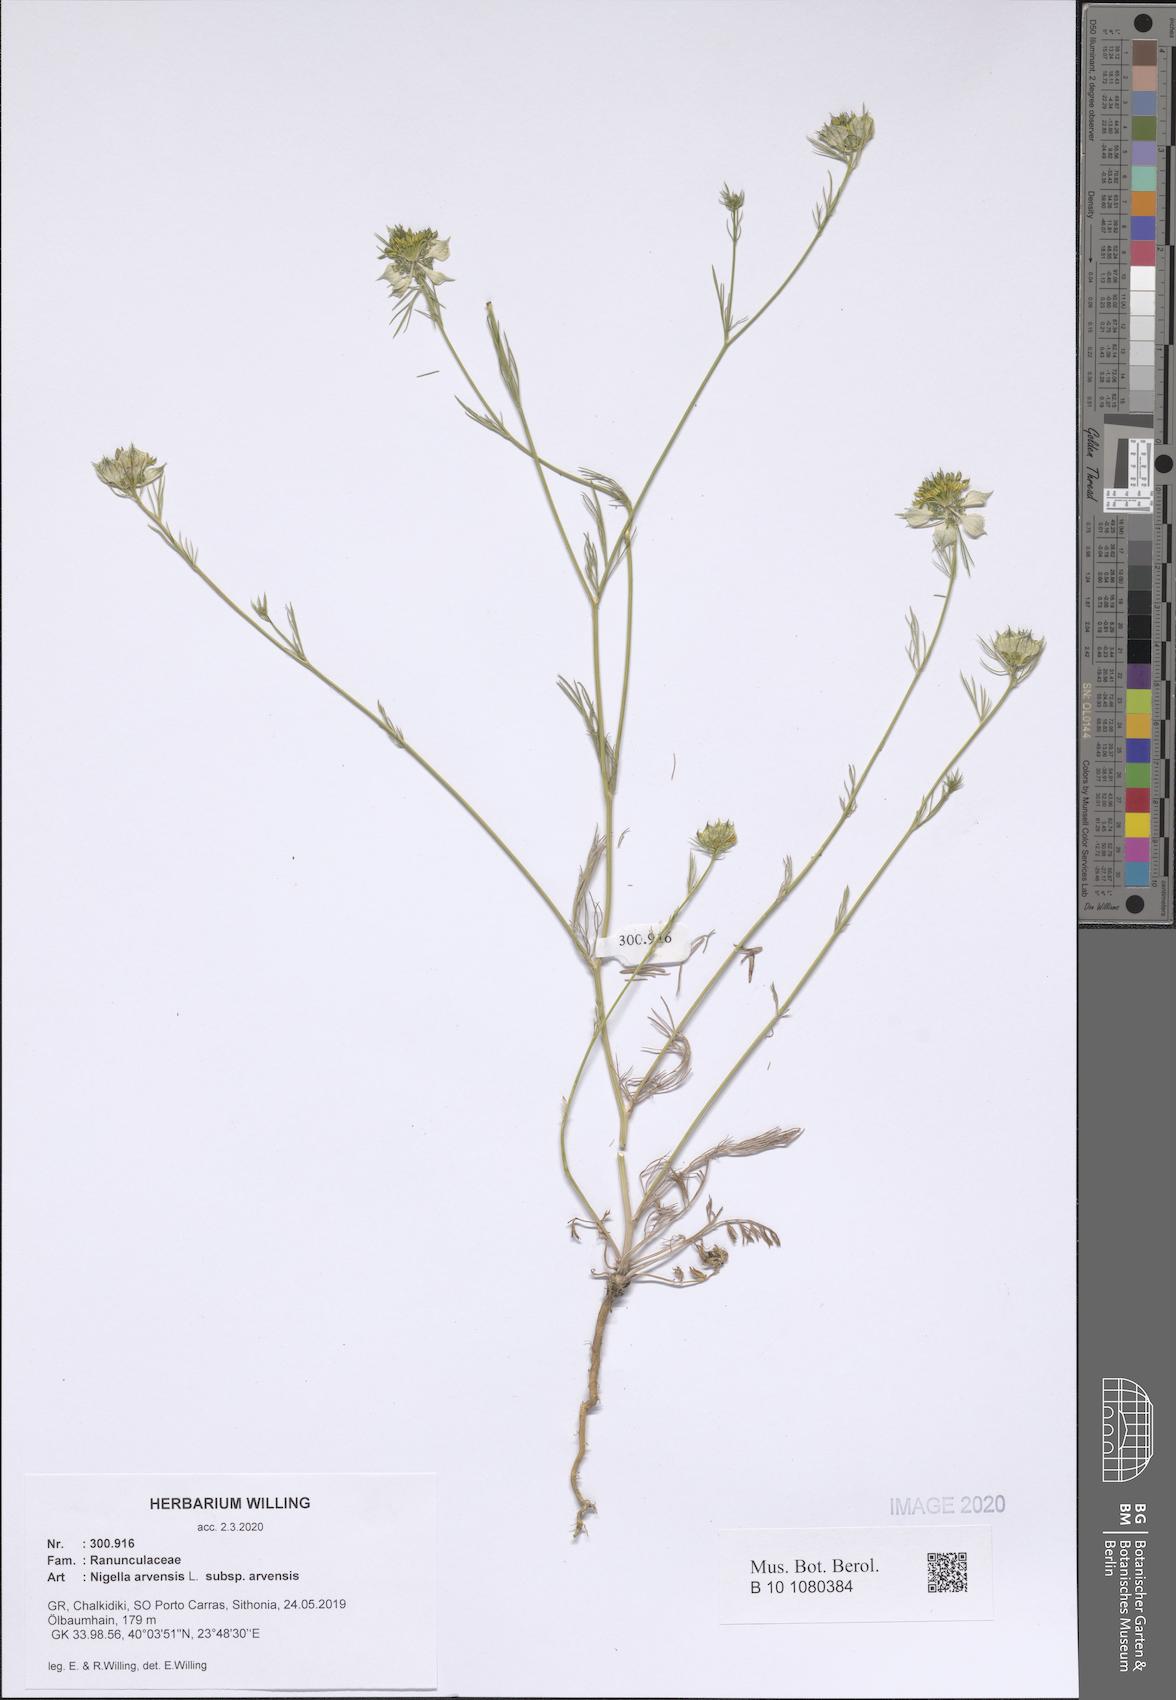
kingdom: Plantae
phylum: Tracheophyta
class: Magnoliopsida
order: Ranunculales
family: Ranunculaceae
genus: Nigella
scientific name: Nigella arvensis
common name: Wild fennel-flower
